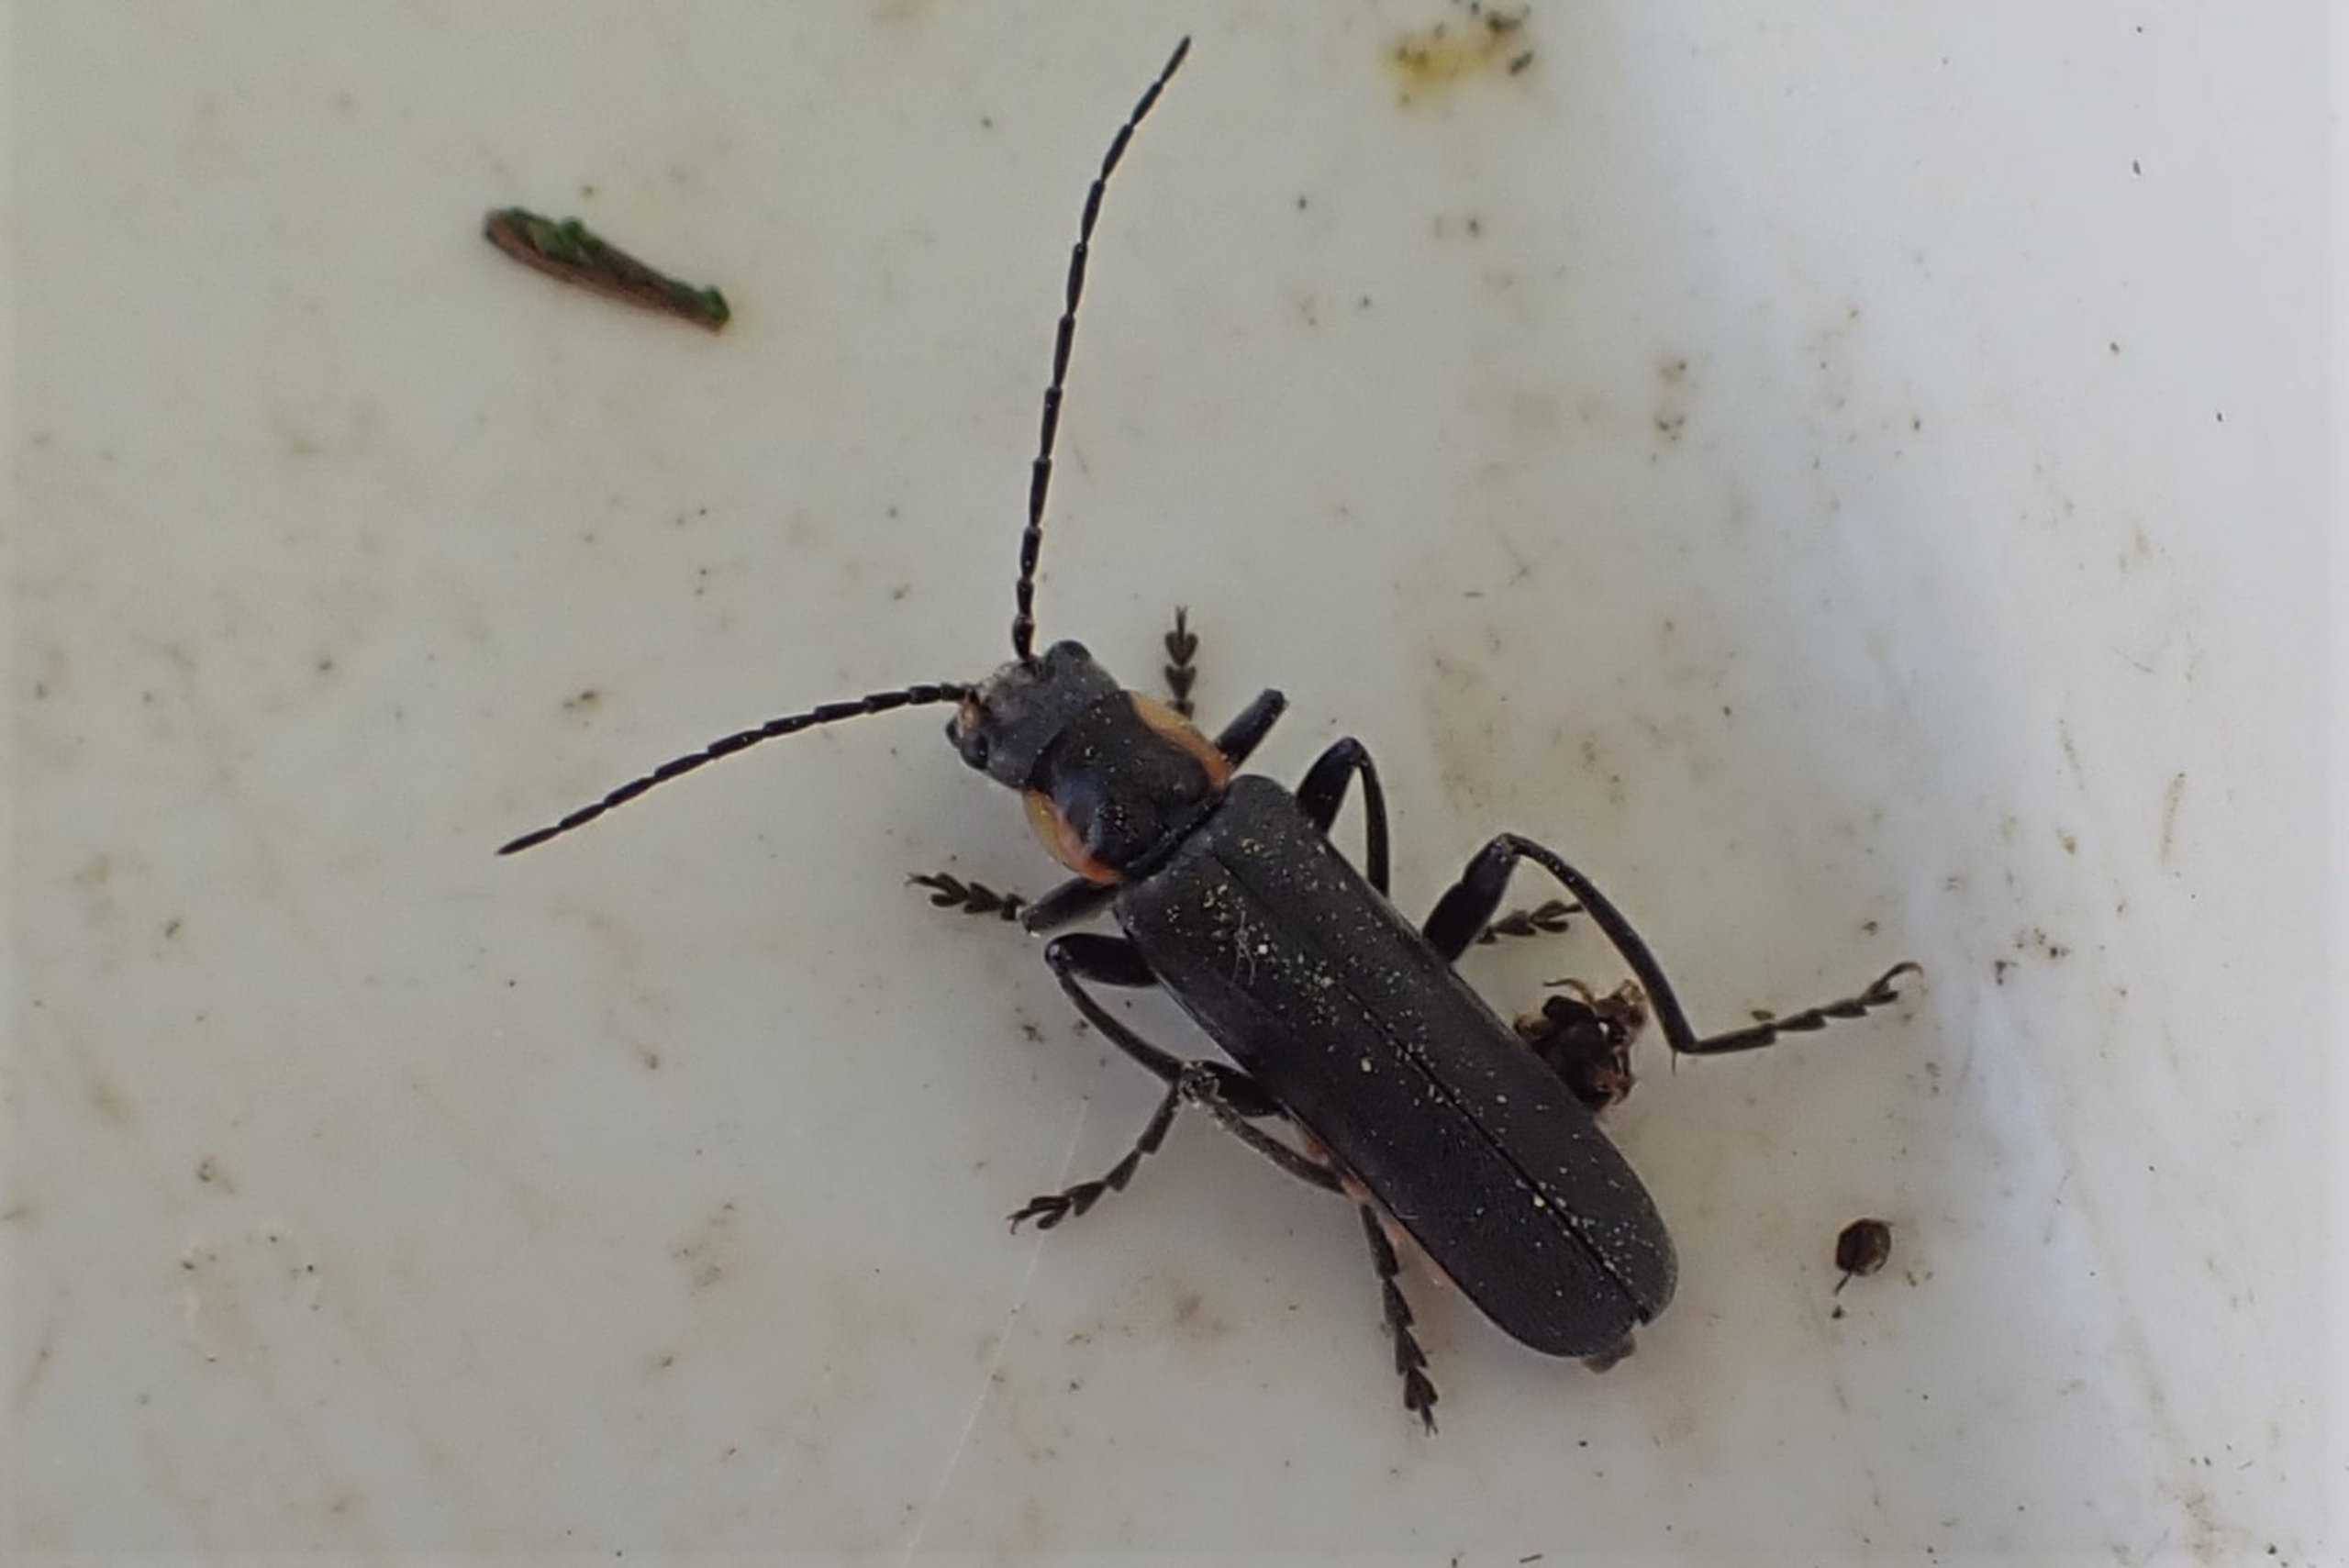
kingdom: Animalia
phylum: Arthropoda
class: Insecta
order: Coleoptera
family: Cantharidae
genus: Cantharis
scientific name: Cantharis obscura
